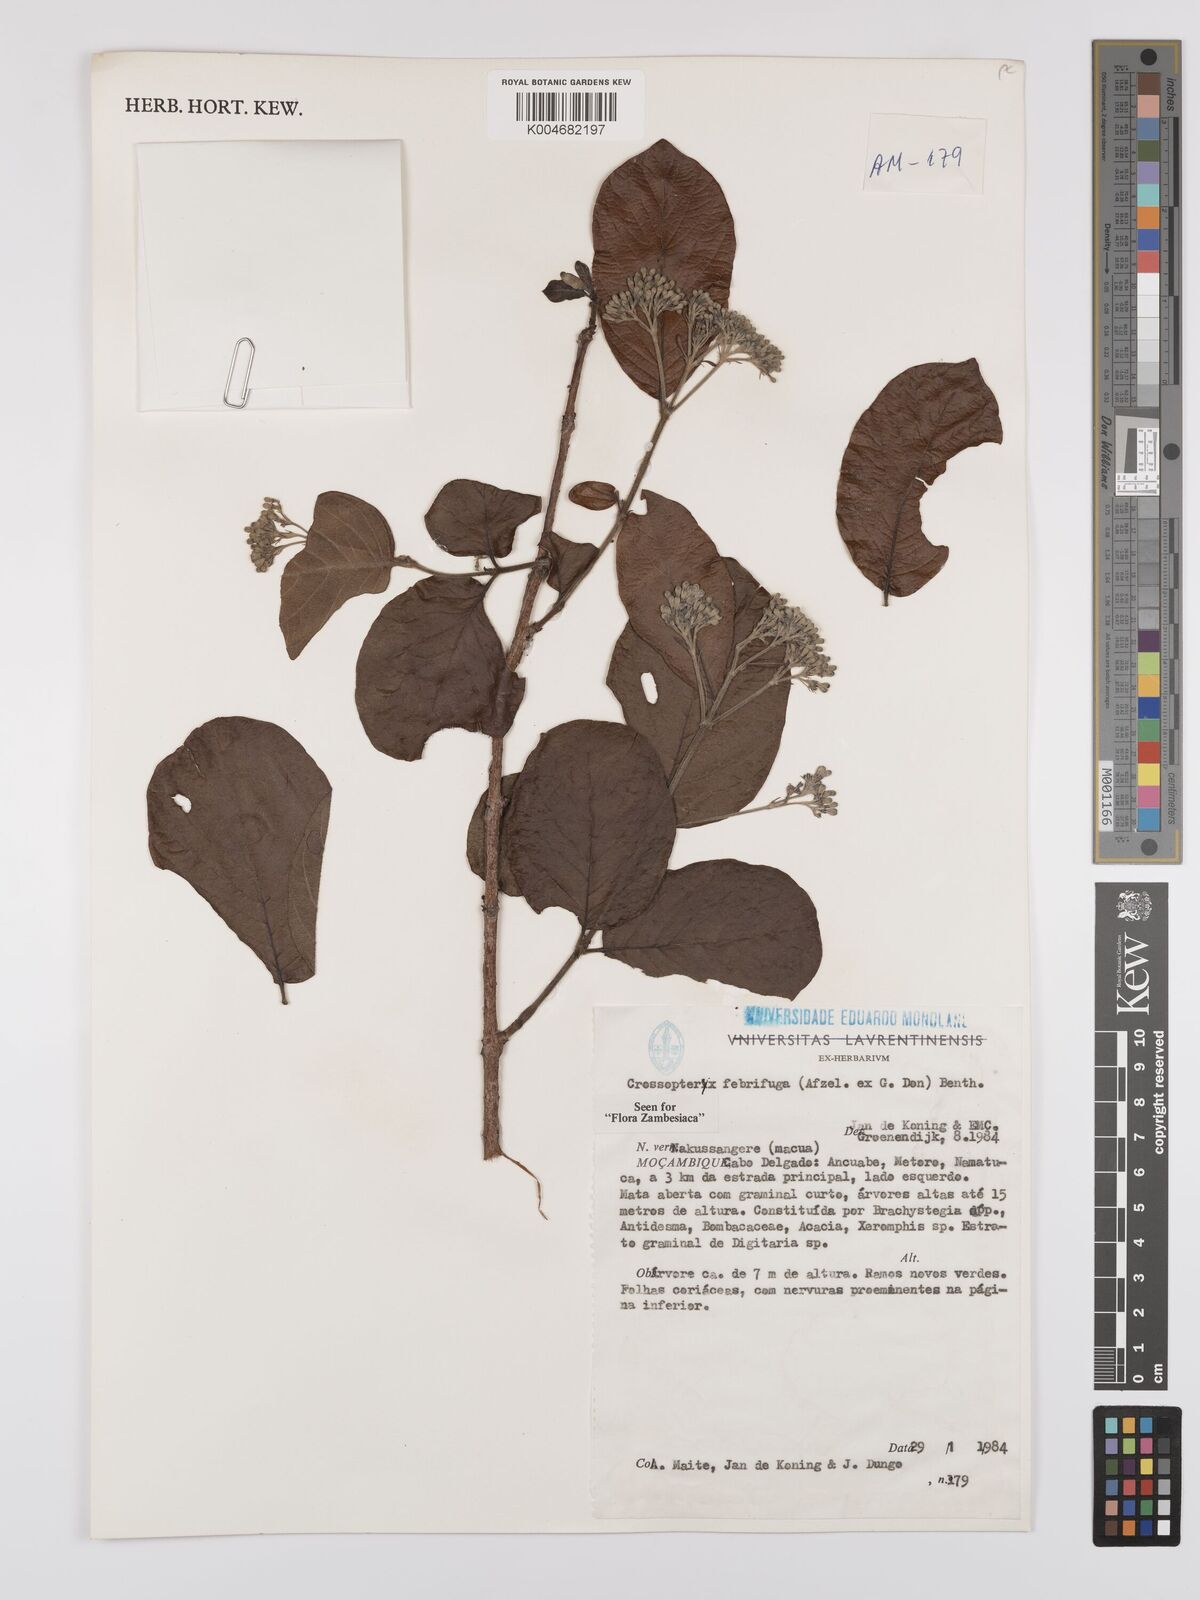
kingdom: Plantae
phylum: Tracheophyta
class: Magnoliopsida
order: Gentianales
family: Rubiaceae
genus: Crossopteryx
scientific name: Crossopteryx febrifuga
